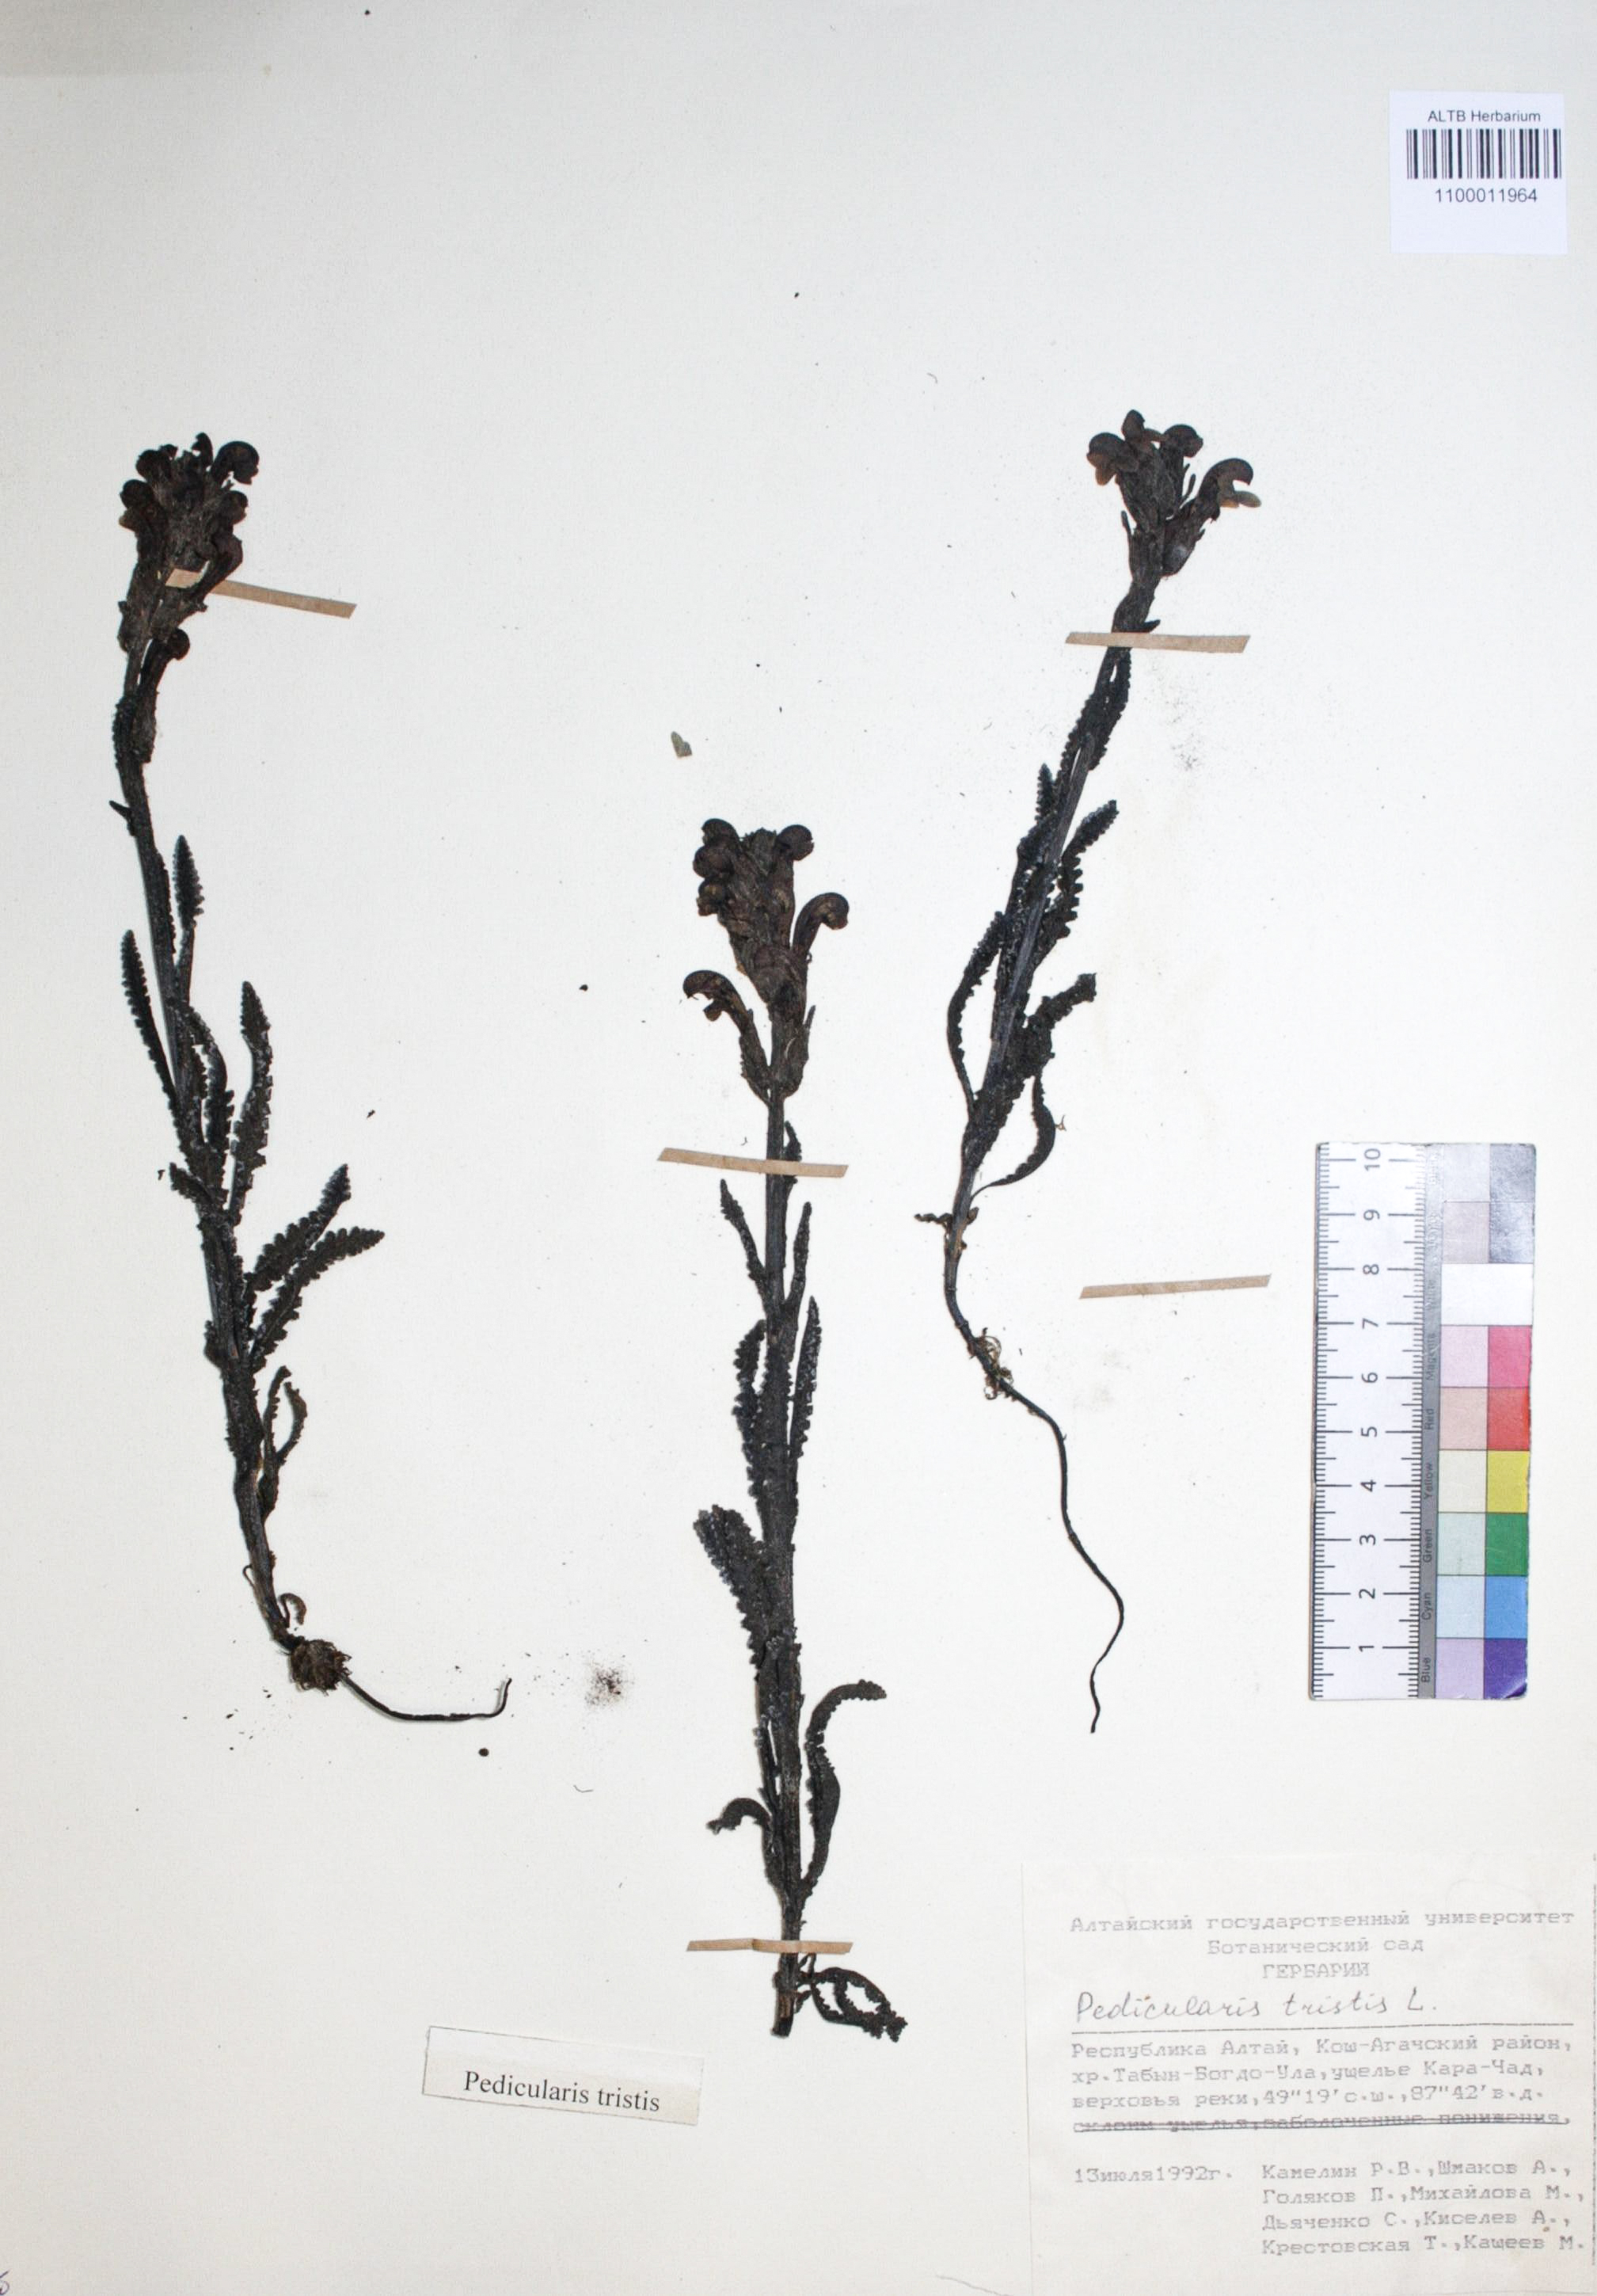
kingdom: Plantae
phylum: Tracheophyta
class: Magnoliopsida
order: Lamiales
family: Orobanchaceae
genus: Pedicularis
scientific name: Pedicularis tristis
